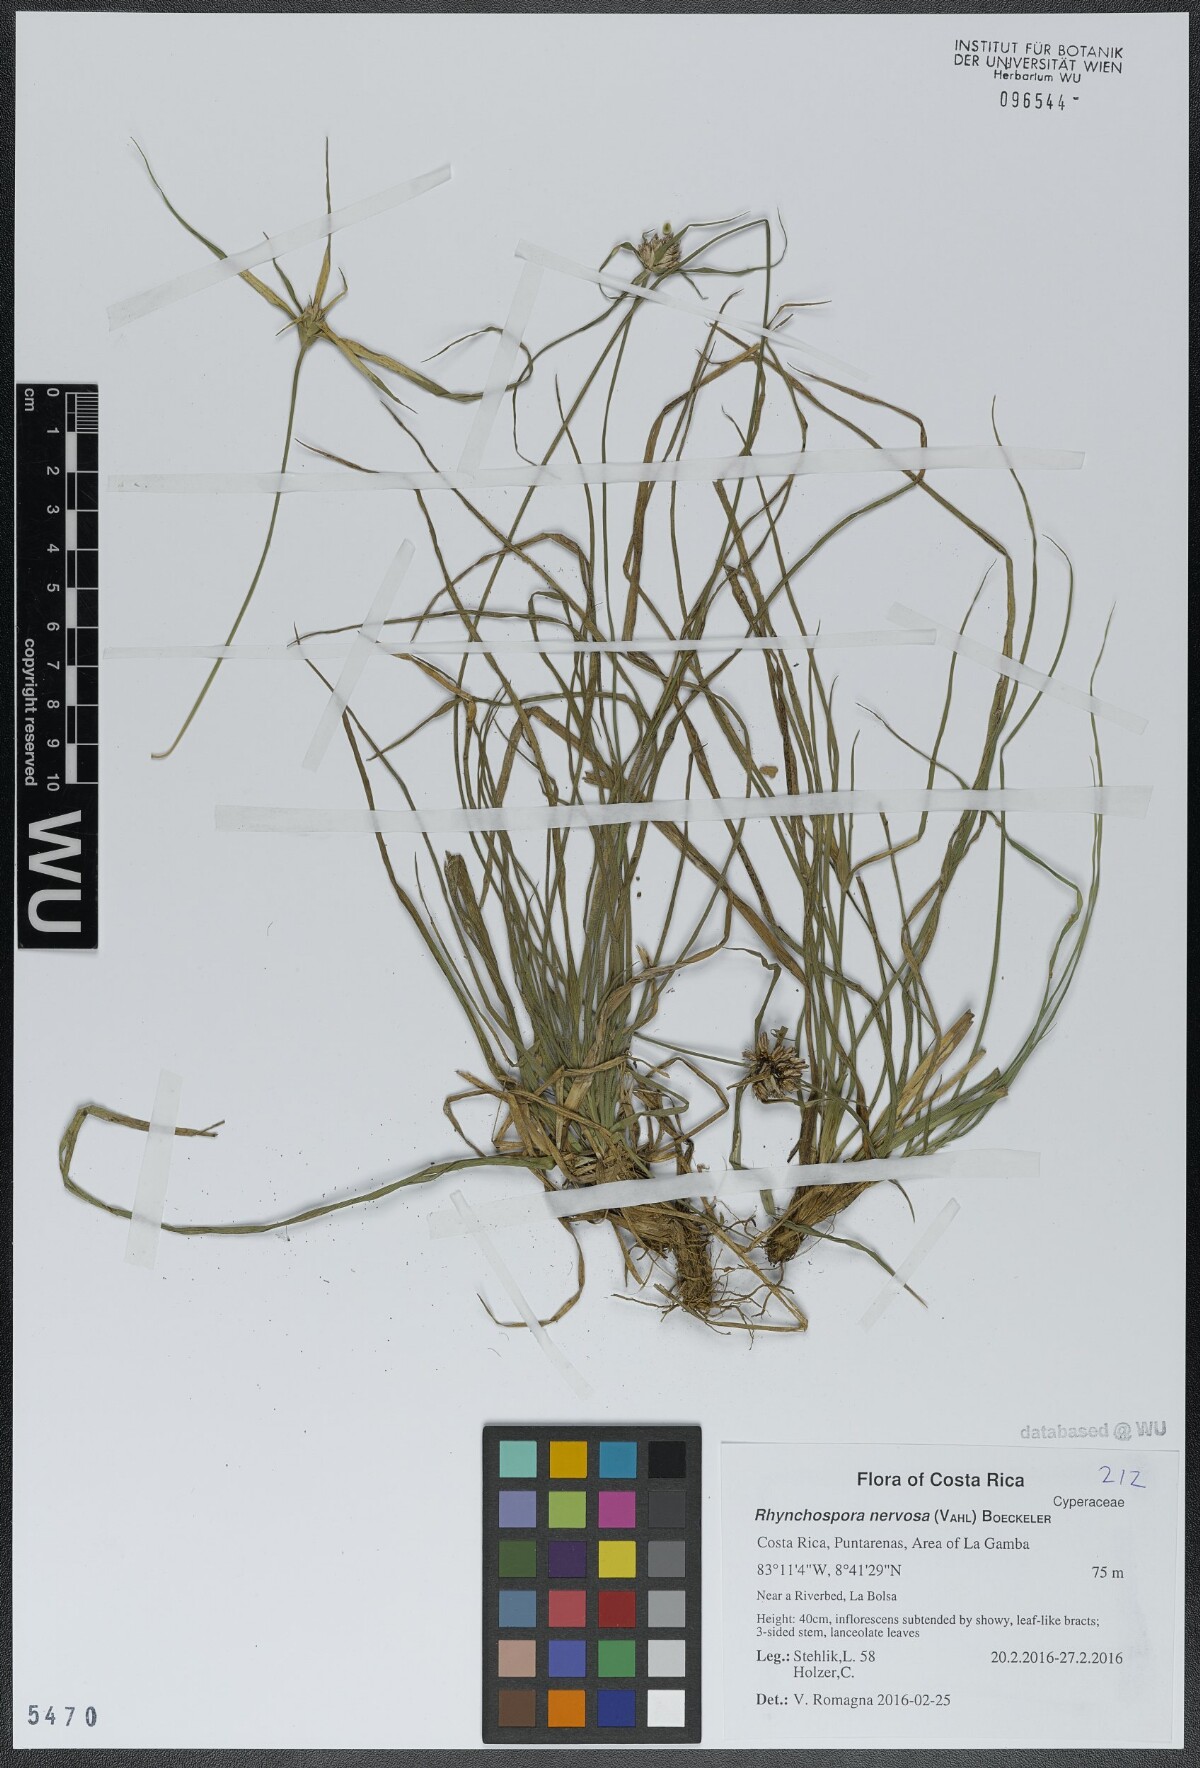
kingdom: Plantae
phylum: Tracheophyta
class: Liliopsida
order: Poales
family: Cyperaceae
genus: Rhynchospora
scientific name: Rhynchospora nervosa
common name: Star sedge
